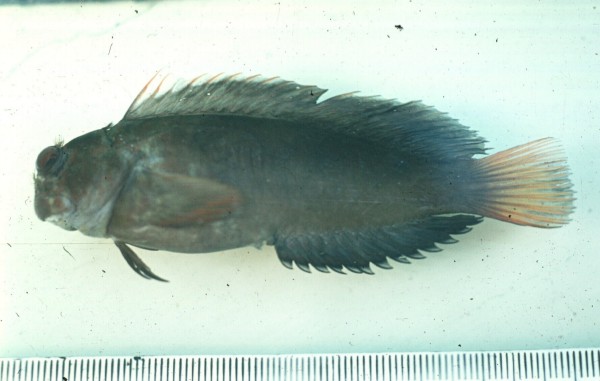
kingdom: Animalia
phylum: Chordata
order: Perciformes
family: Blenniidae
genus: Cirripectes
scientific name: Cirripectes
